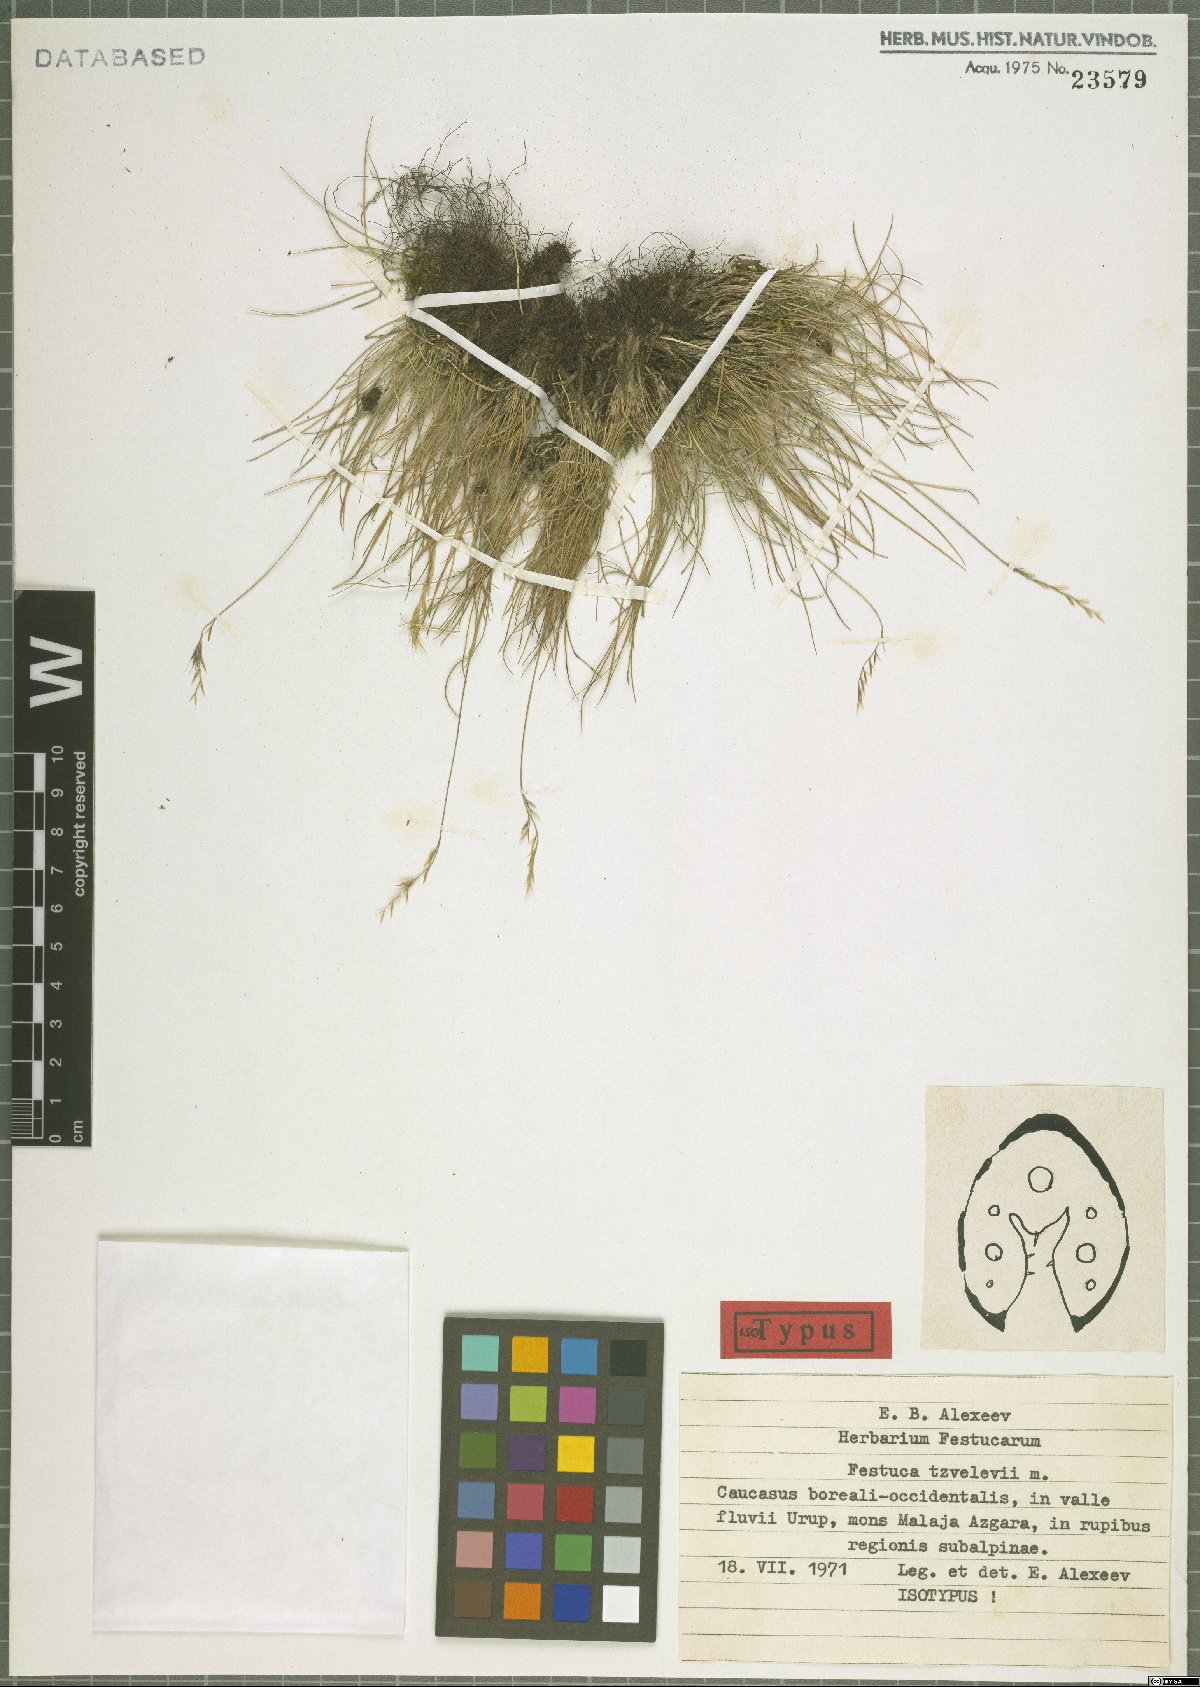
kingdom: Plantae
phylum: Tracheophyta
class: Liliopsida
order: Poales
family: Poaceae
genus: Festuca
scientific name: Festuca tzvelevii
